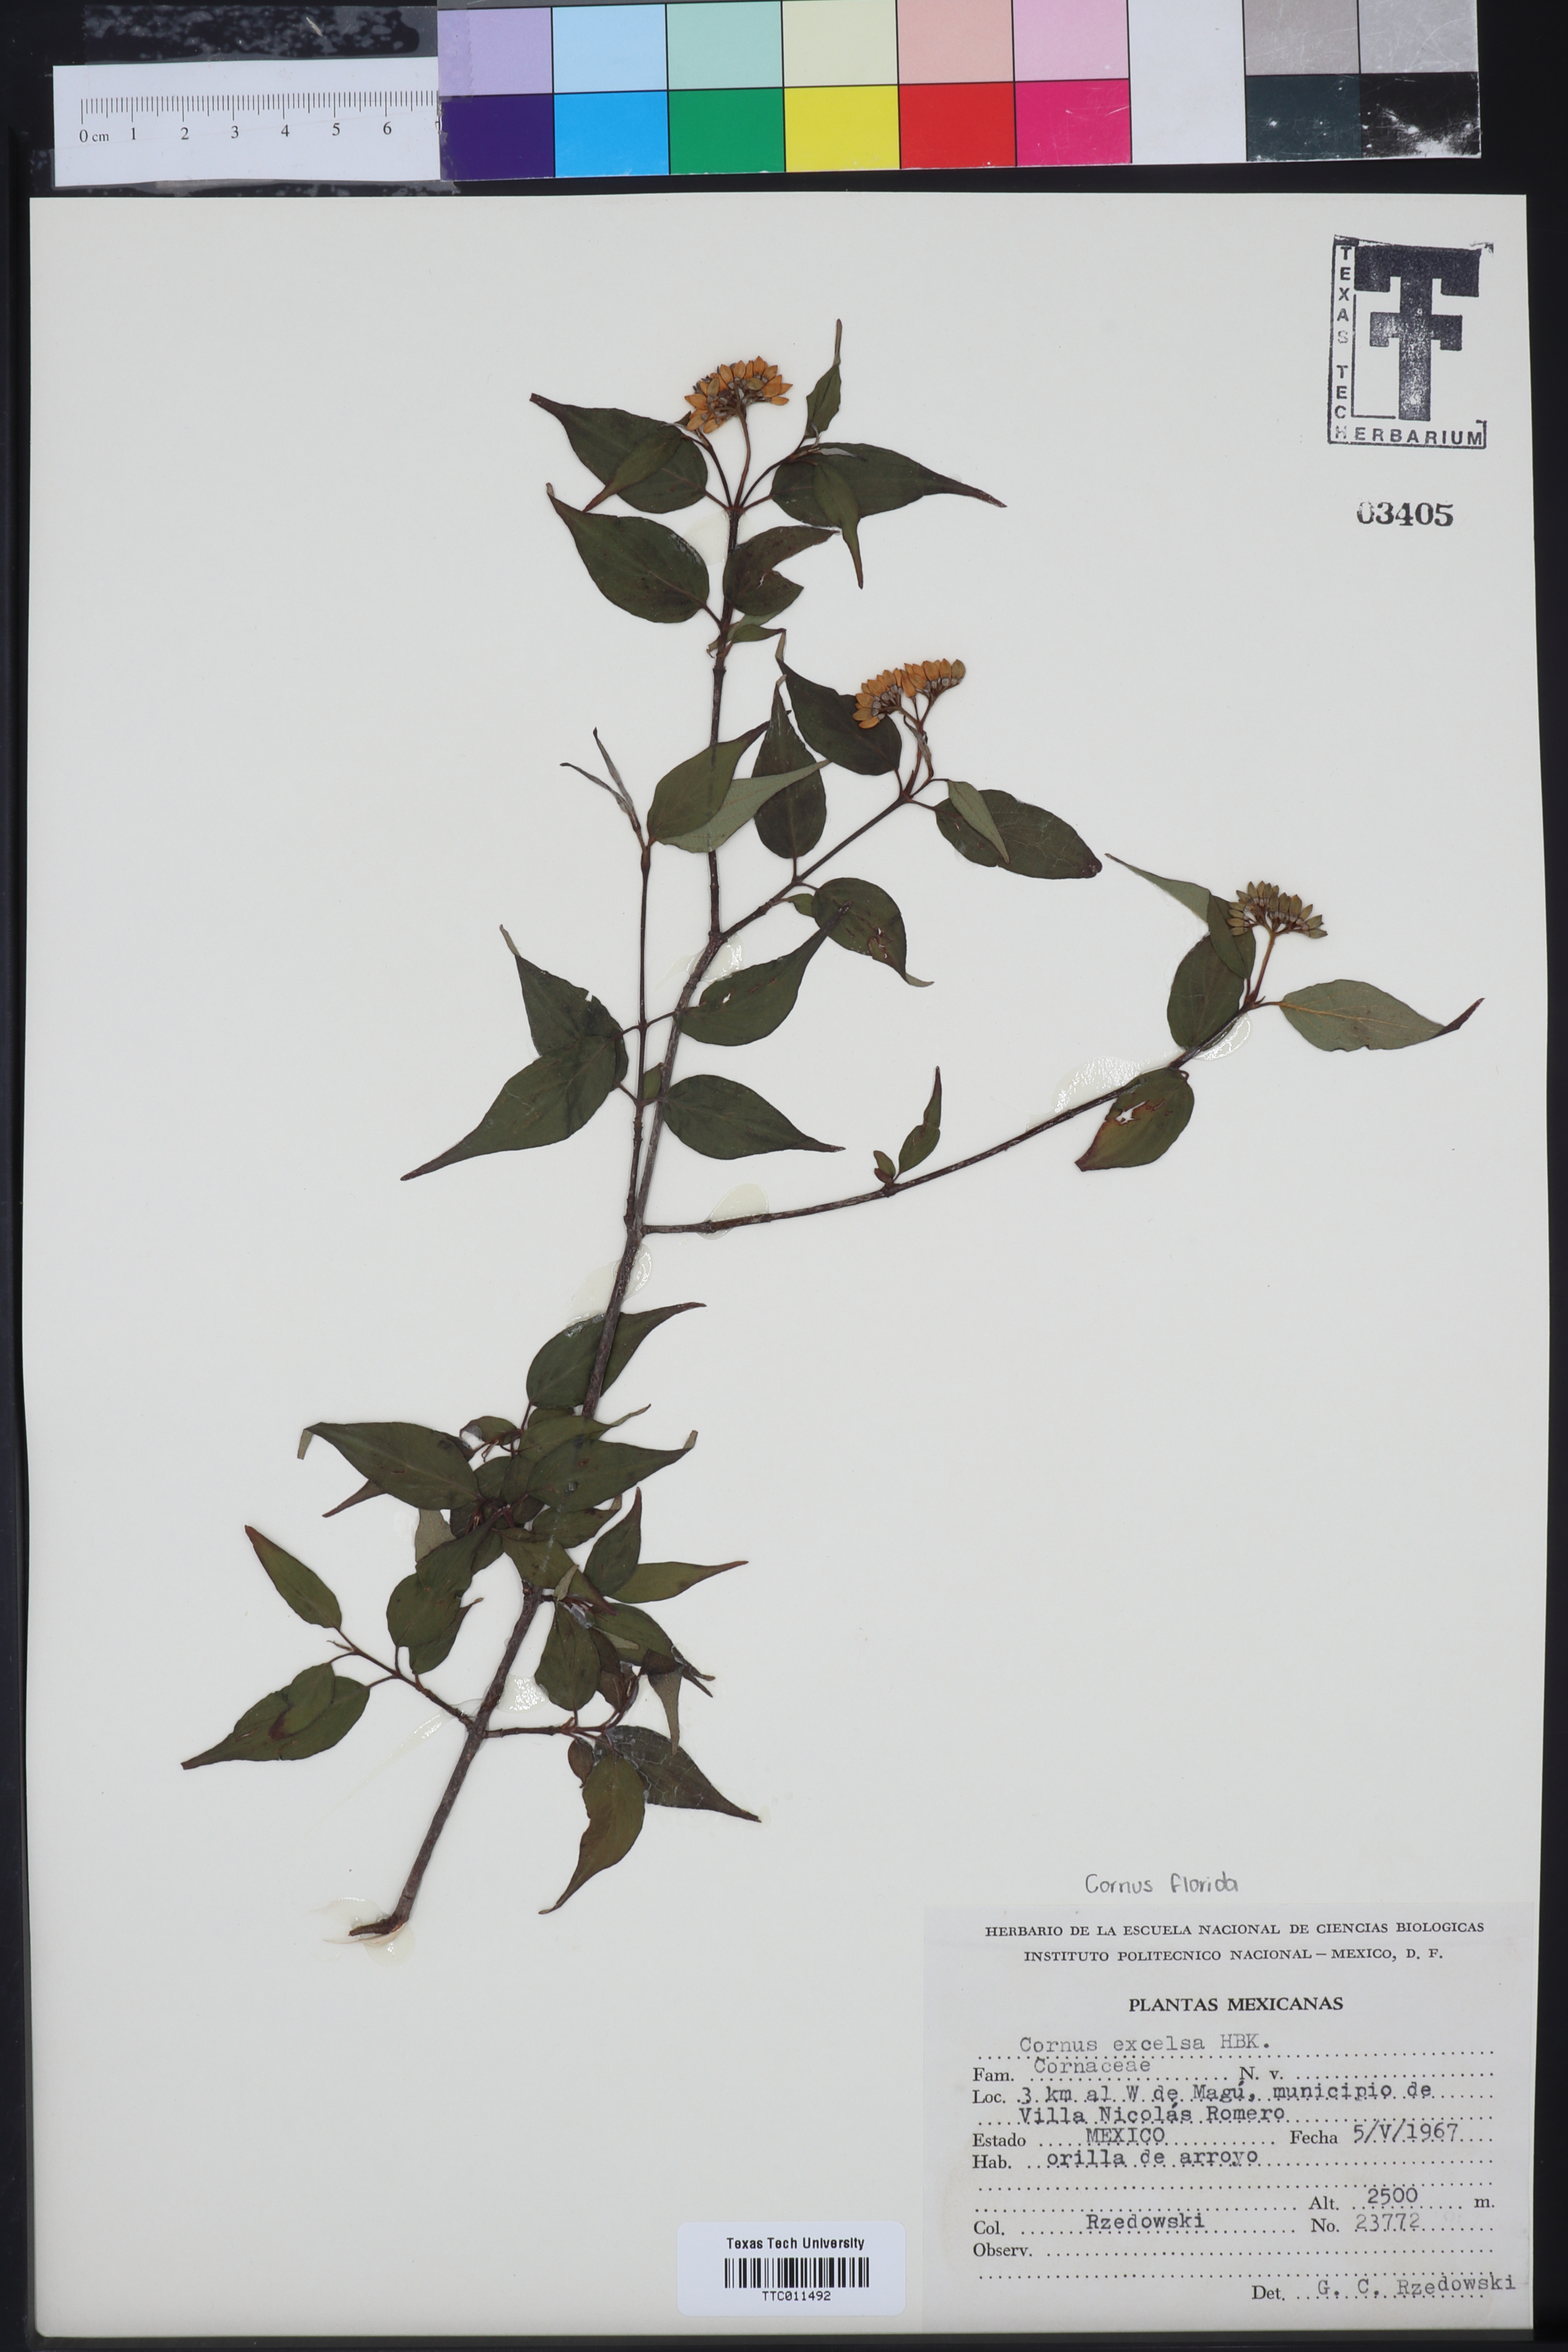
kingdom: Plantae
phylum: Tracheophyta
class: Magnoliopsida
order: Cornales
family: Cornaceae
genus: Cornus
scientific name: Cornus excelsa
